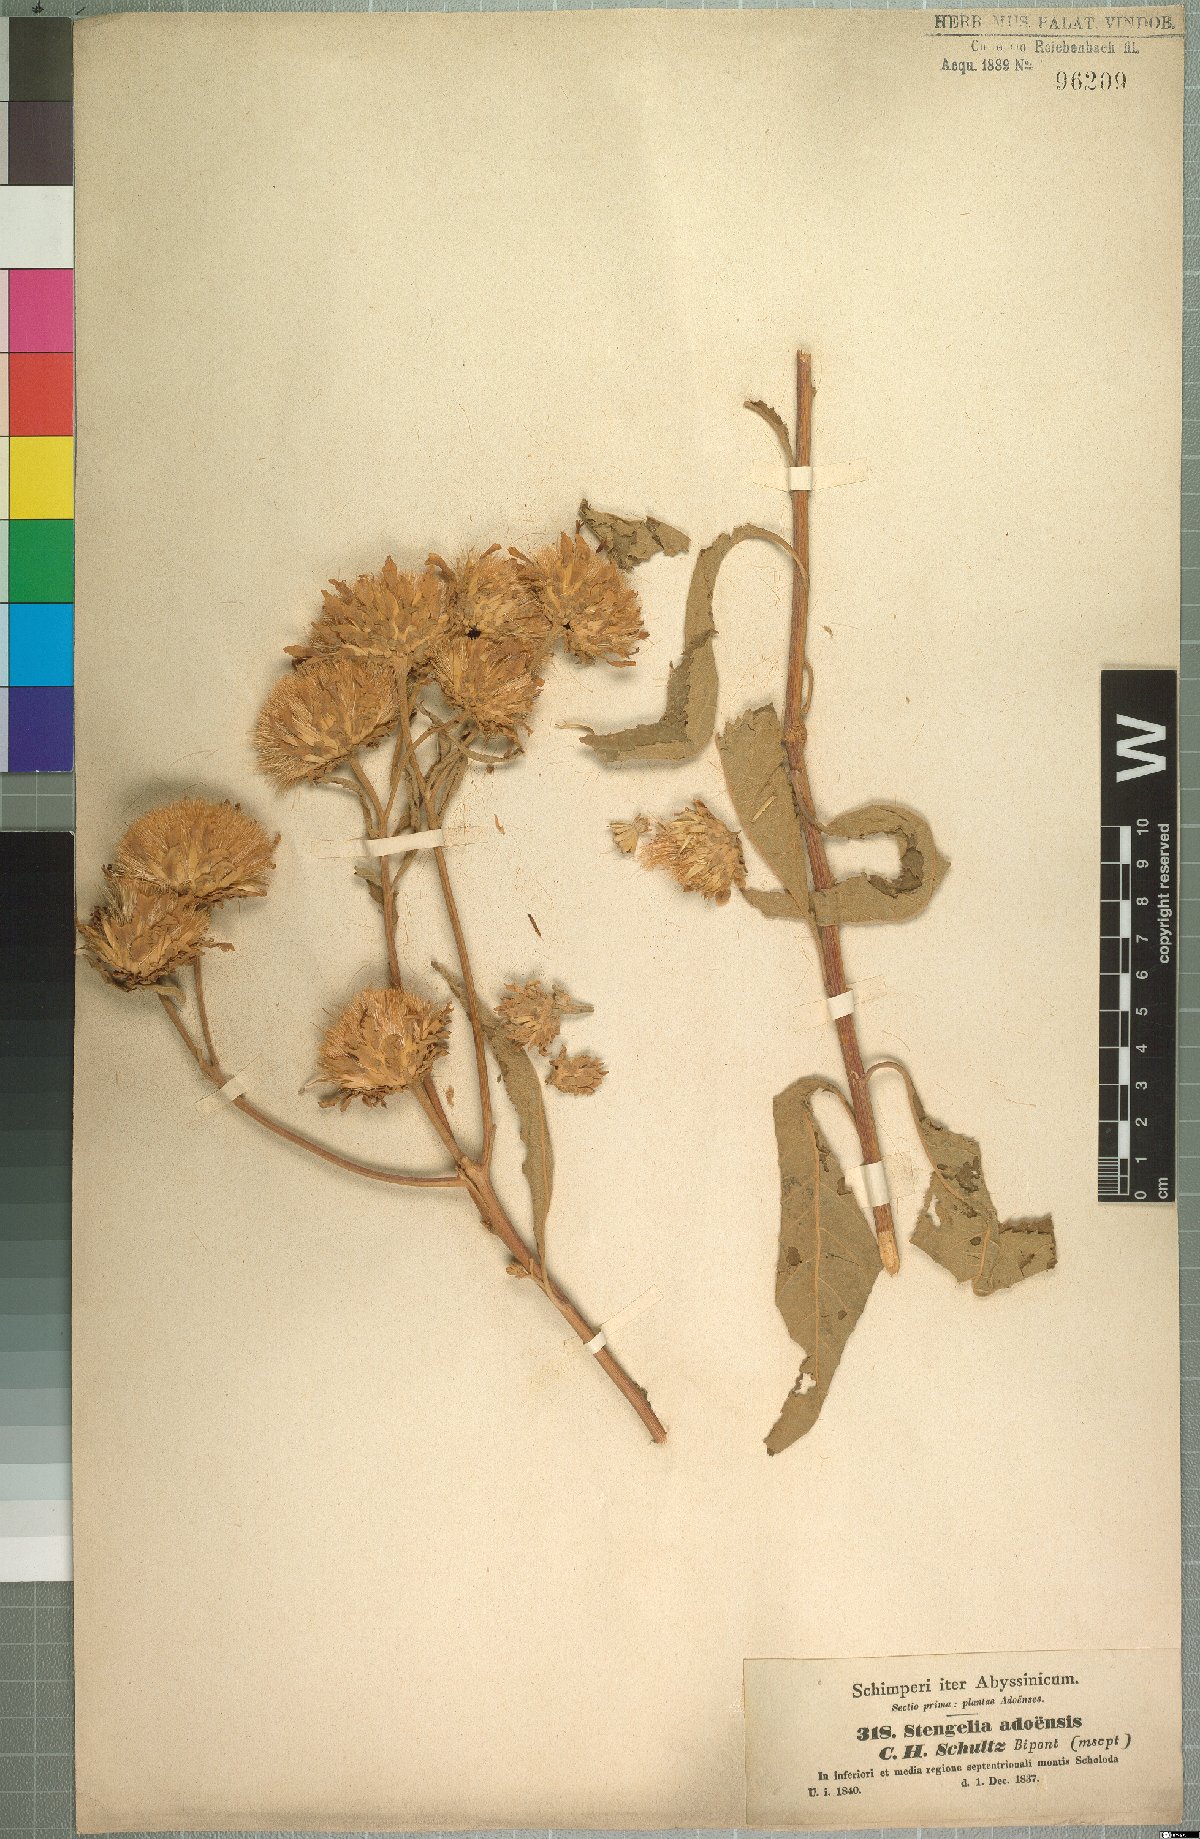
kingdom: Plantae
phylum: Tracheophyta
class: Magnoliopsida
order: Asterales
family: Asteraceae
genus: Baccharoides
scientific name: Baccharoides adoensis
